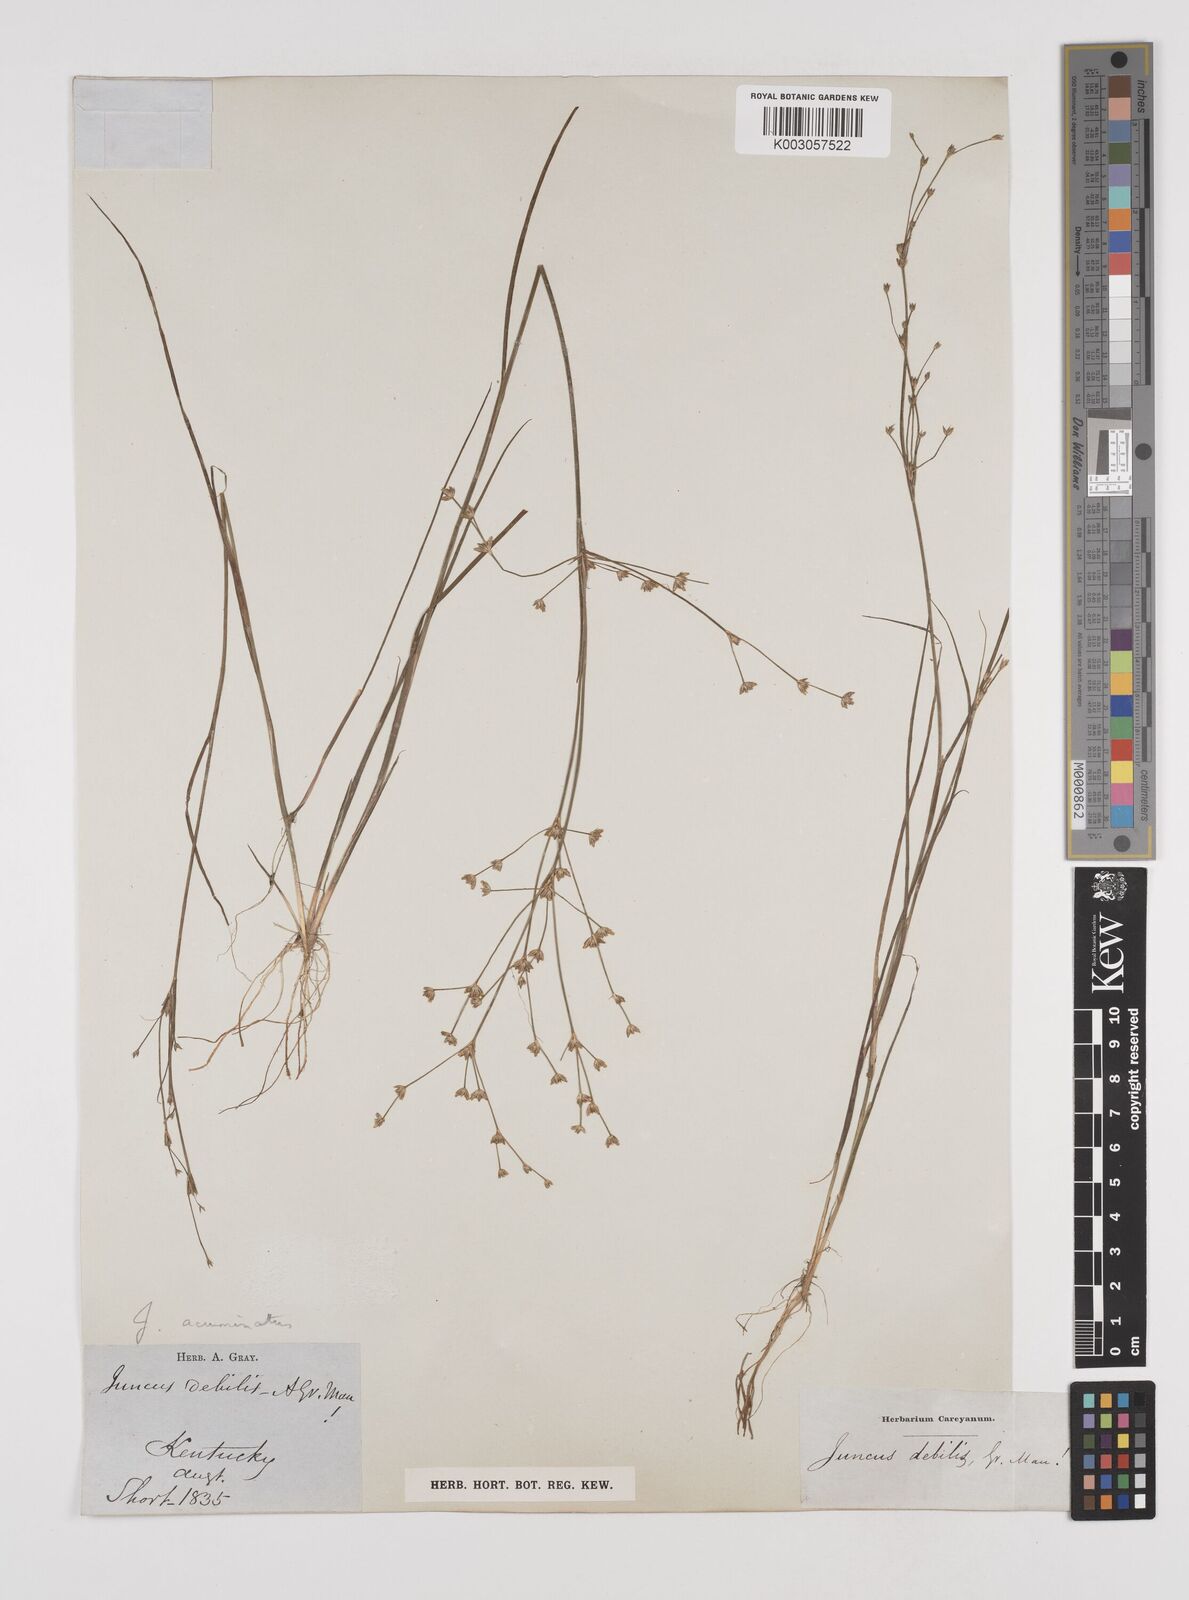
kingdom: Plantae
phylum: Tracheophyta
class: Liliopsida
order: Poales
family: Juncaceae
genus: Juncus
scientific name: Juncus debilis
